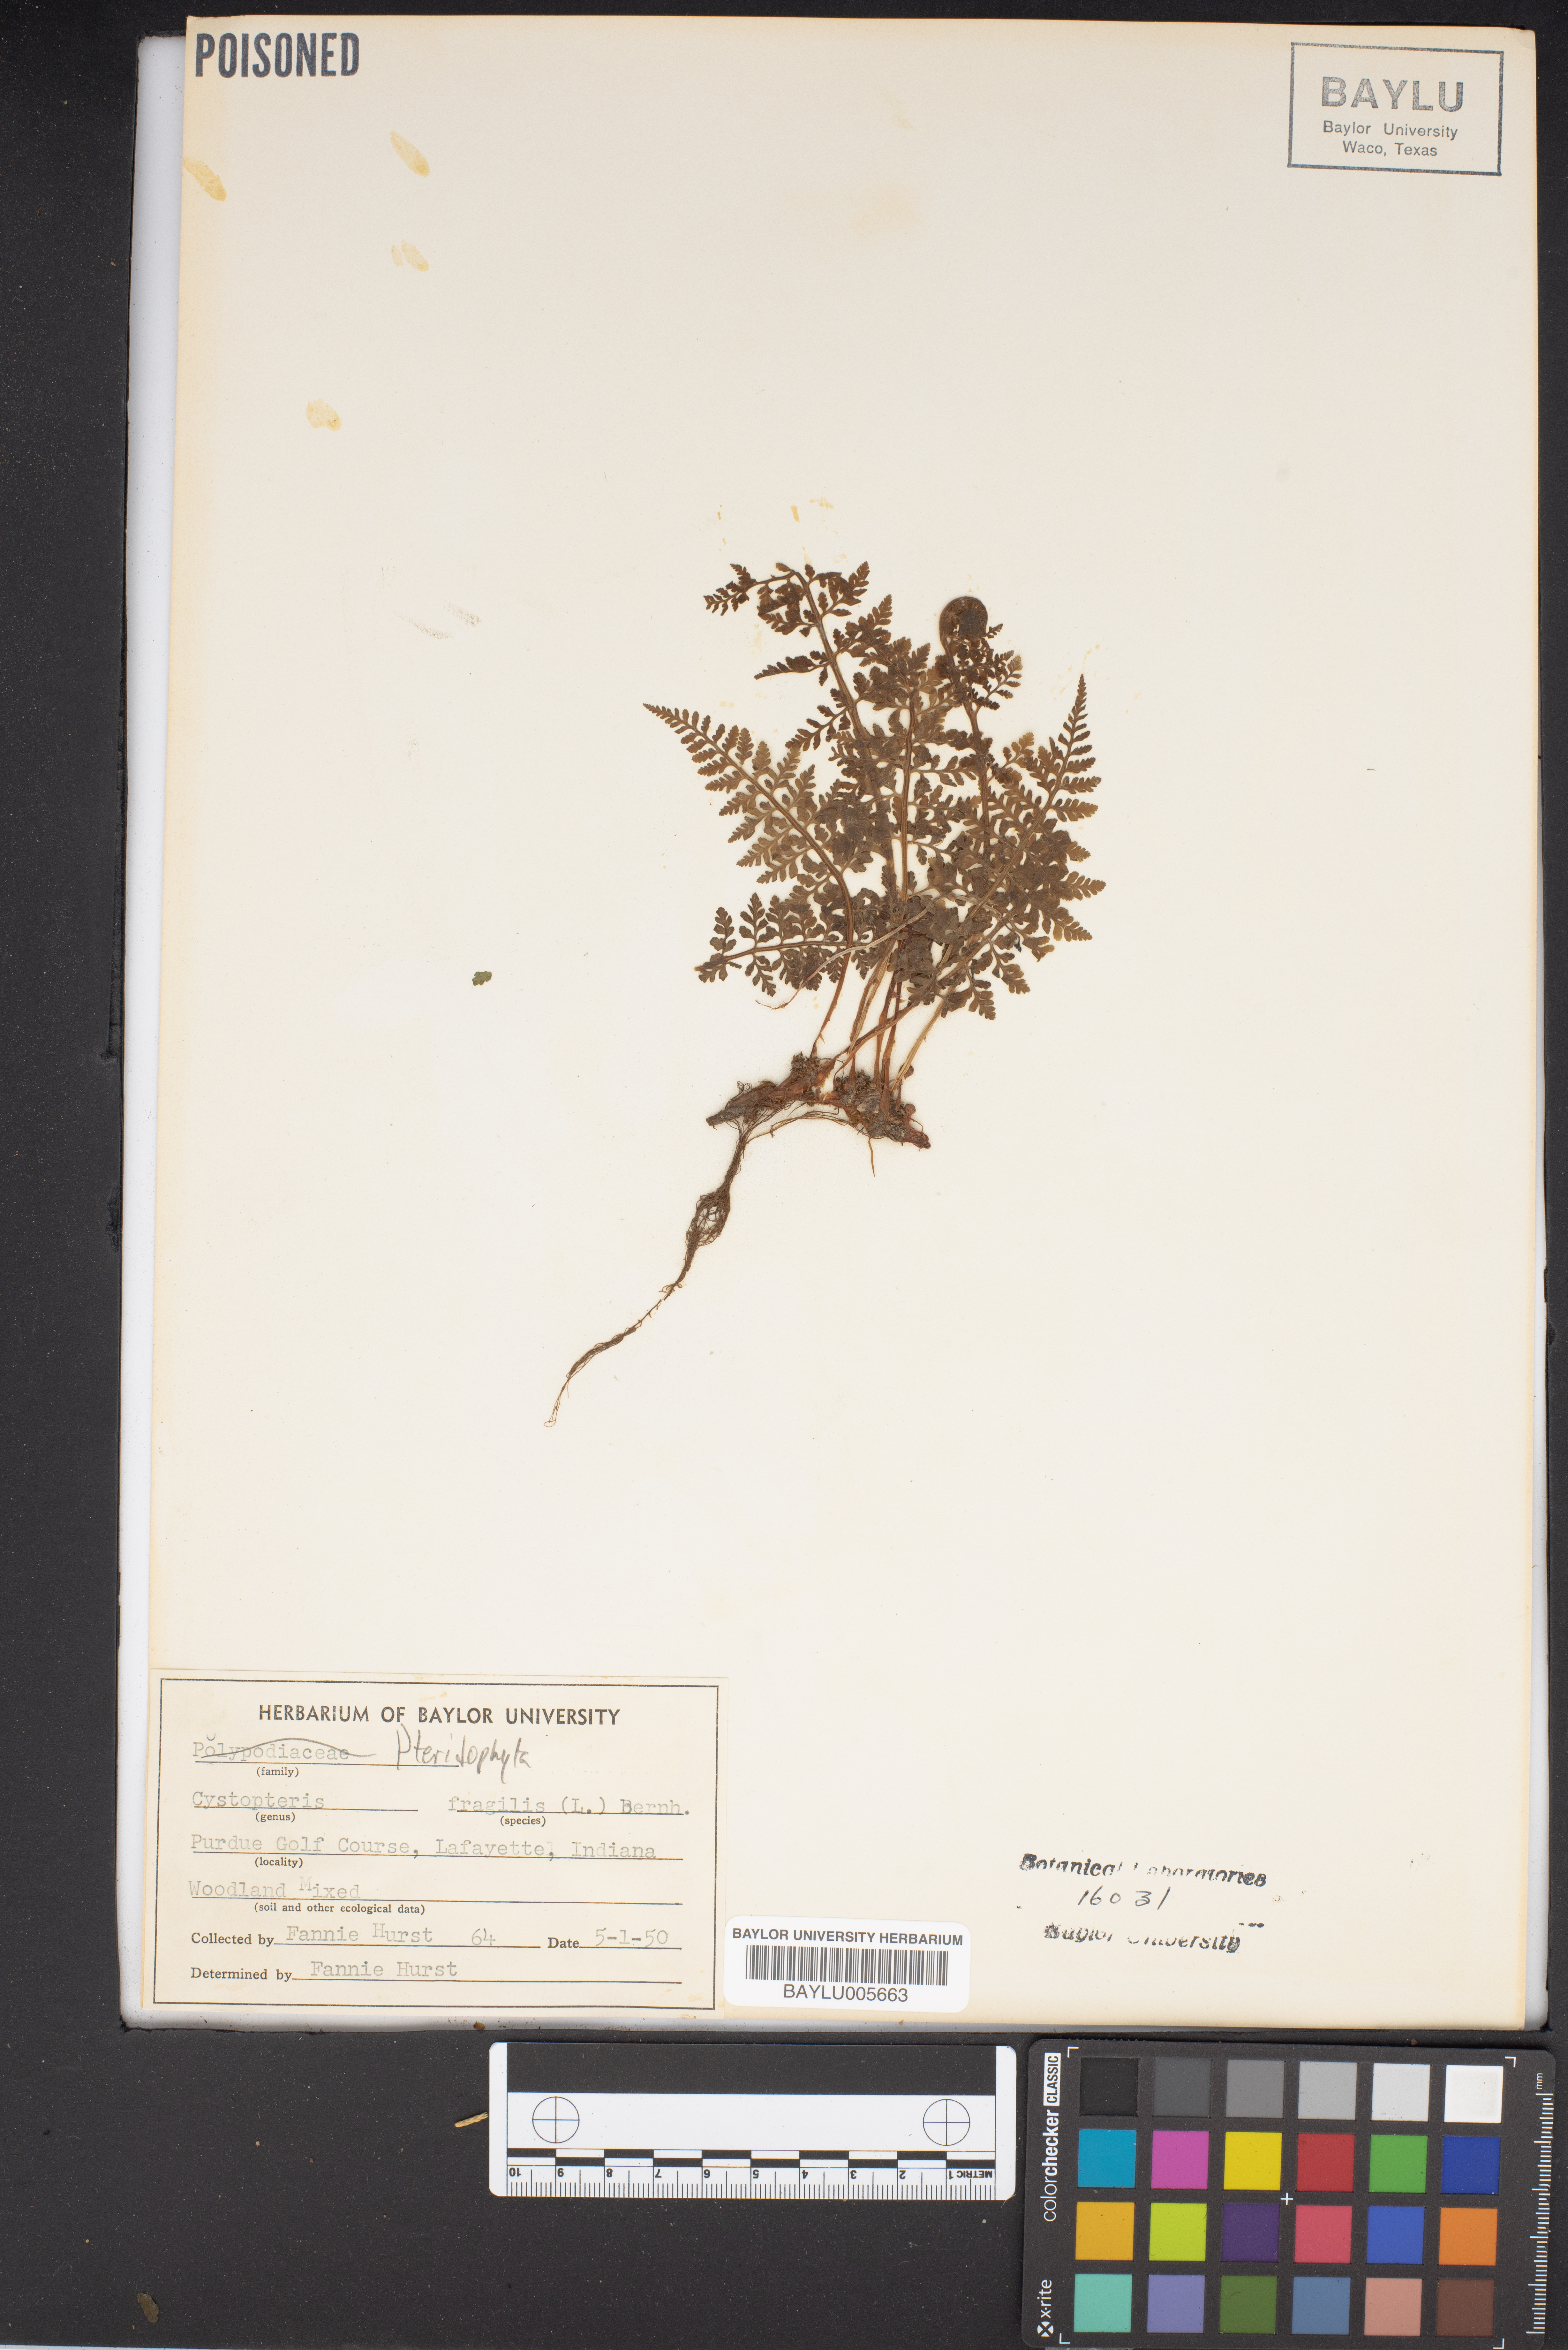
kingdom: Plantae
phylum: Tracheophyta
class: Polypodiopsida
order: Polypodiales
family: Cystopteridaceae
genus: Cystopteris
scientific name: Cystopteris fragilis
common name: Brittle bladder fern
